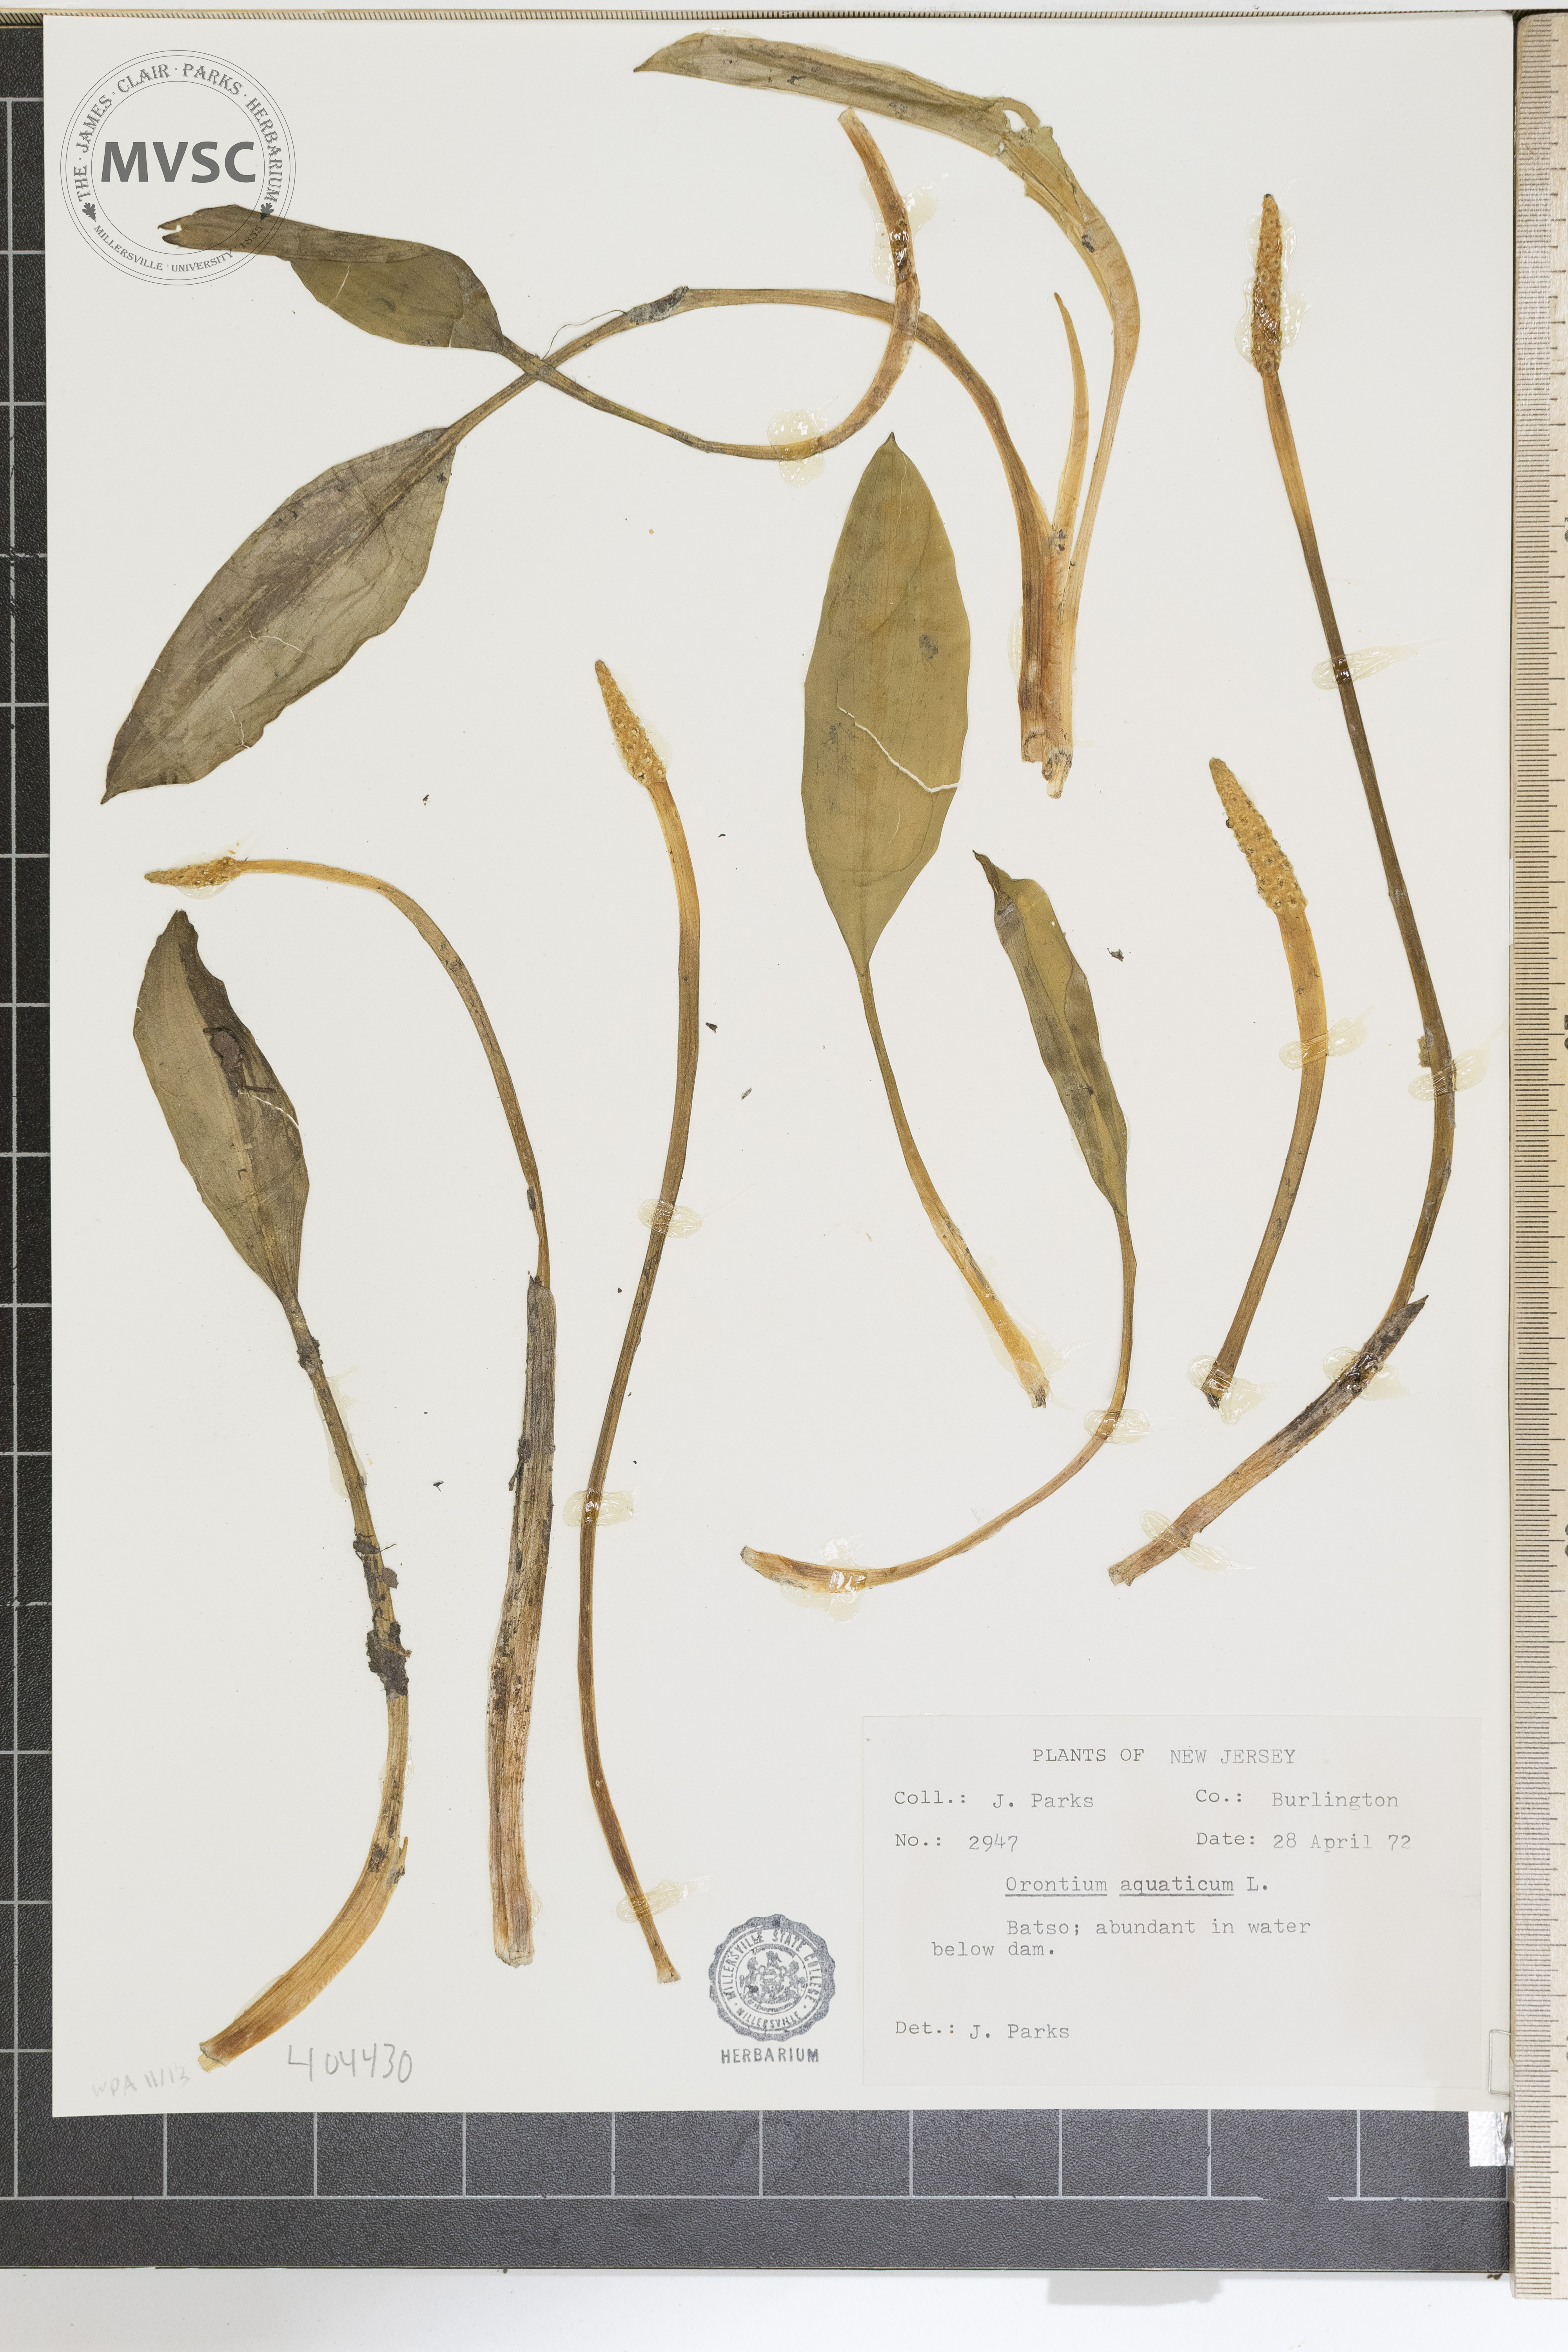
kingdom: Plantae
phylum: Tracheophyta
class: Liliopsida
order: Alismatales
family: Araceae
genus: Orontium
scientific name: Orontium aquaticum
